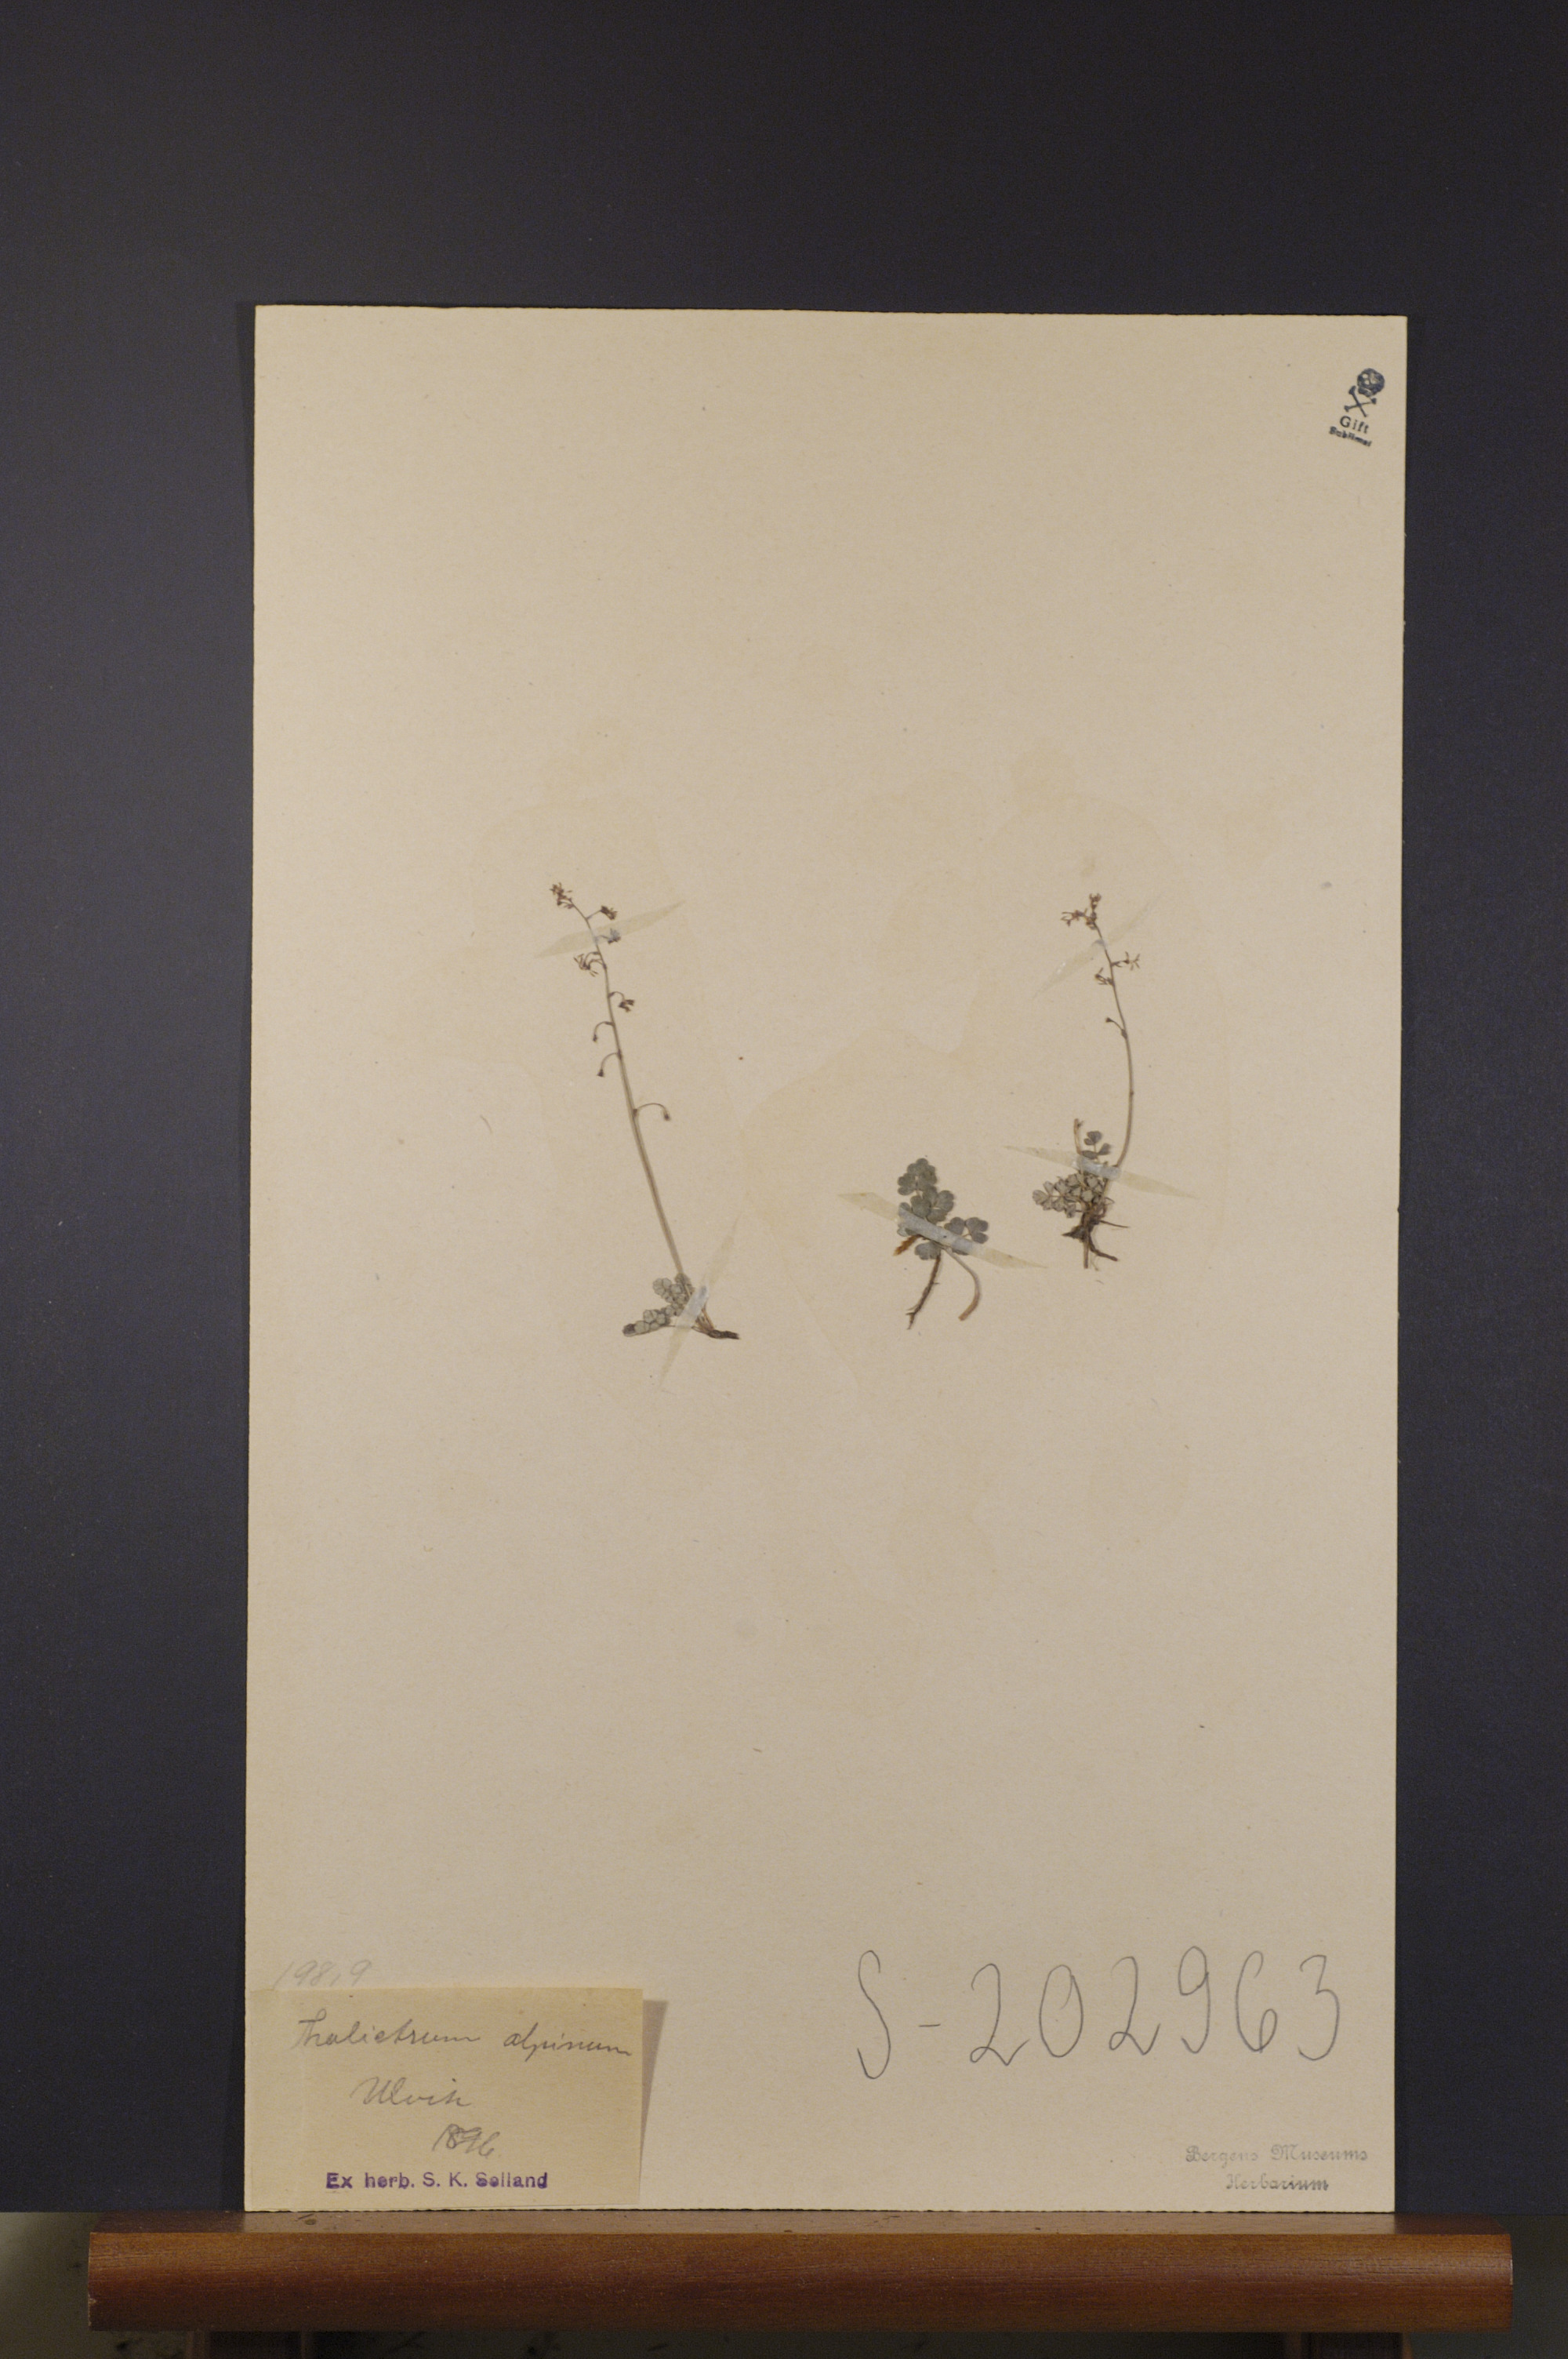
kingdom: Plantae
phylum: Tracheophyta
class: Magnoliopsida
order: Ranunculales
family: Ranunculaceae
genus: Thalictrum
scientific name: Thalictrum alpinum
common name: Alpine meadow-rue
